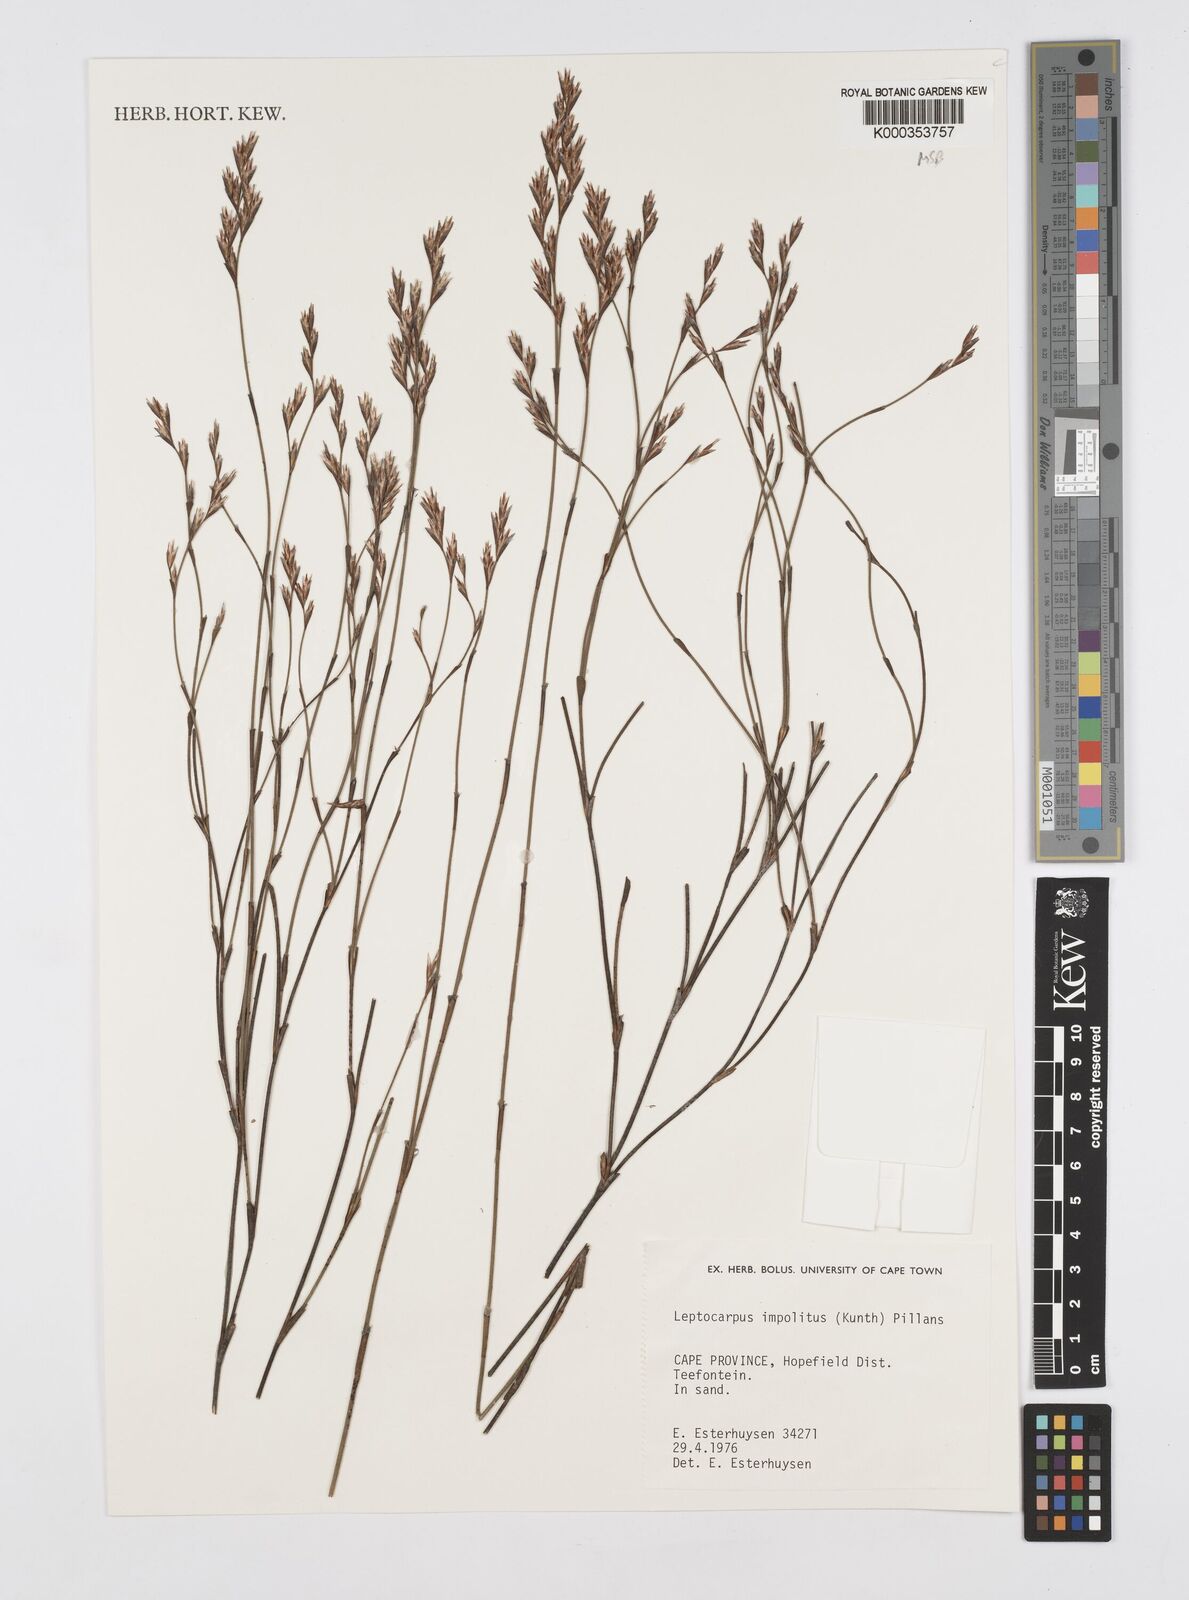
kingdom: Plantae
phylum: Tracheophyta
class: Liliopsida
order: Poales
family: Restionaceae
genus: Restio
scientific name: Restio impolitus
